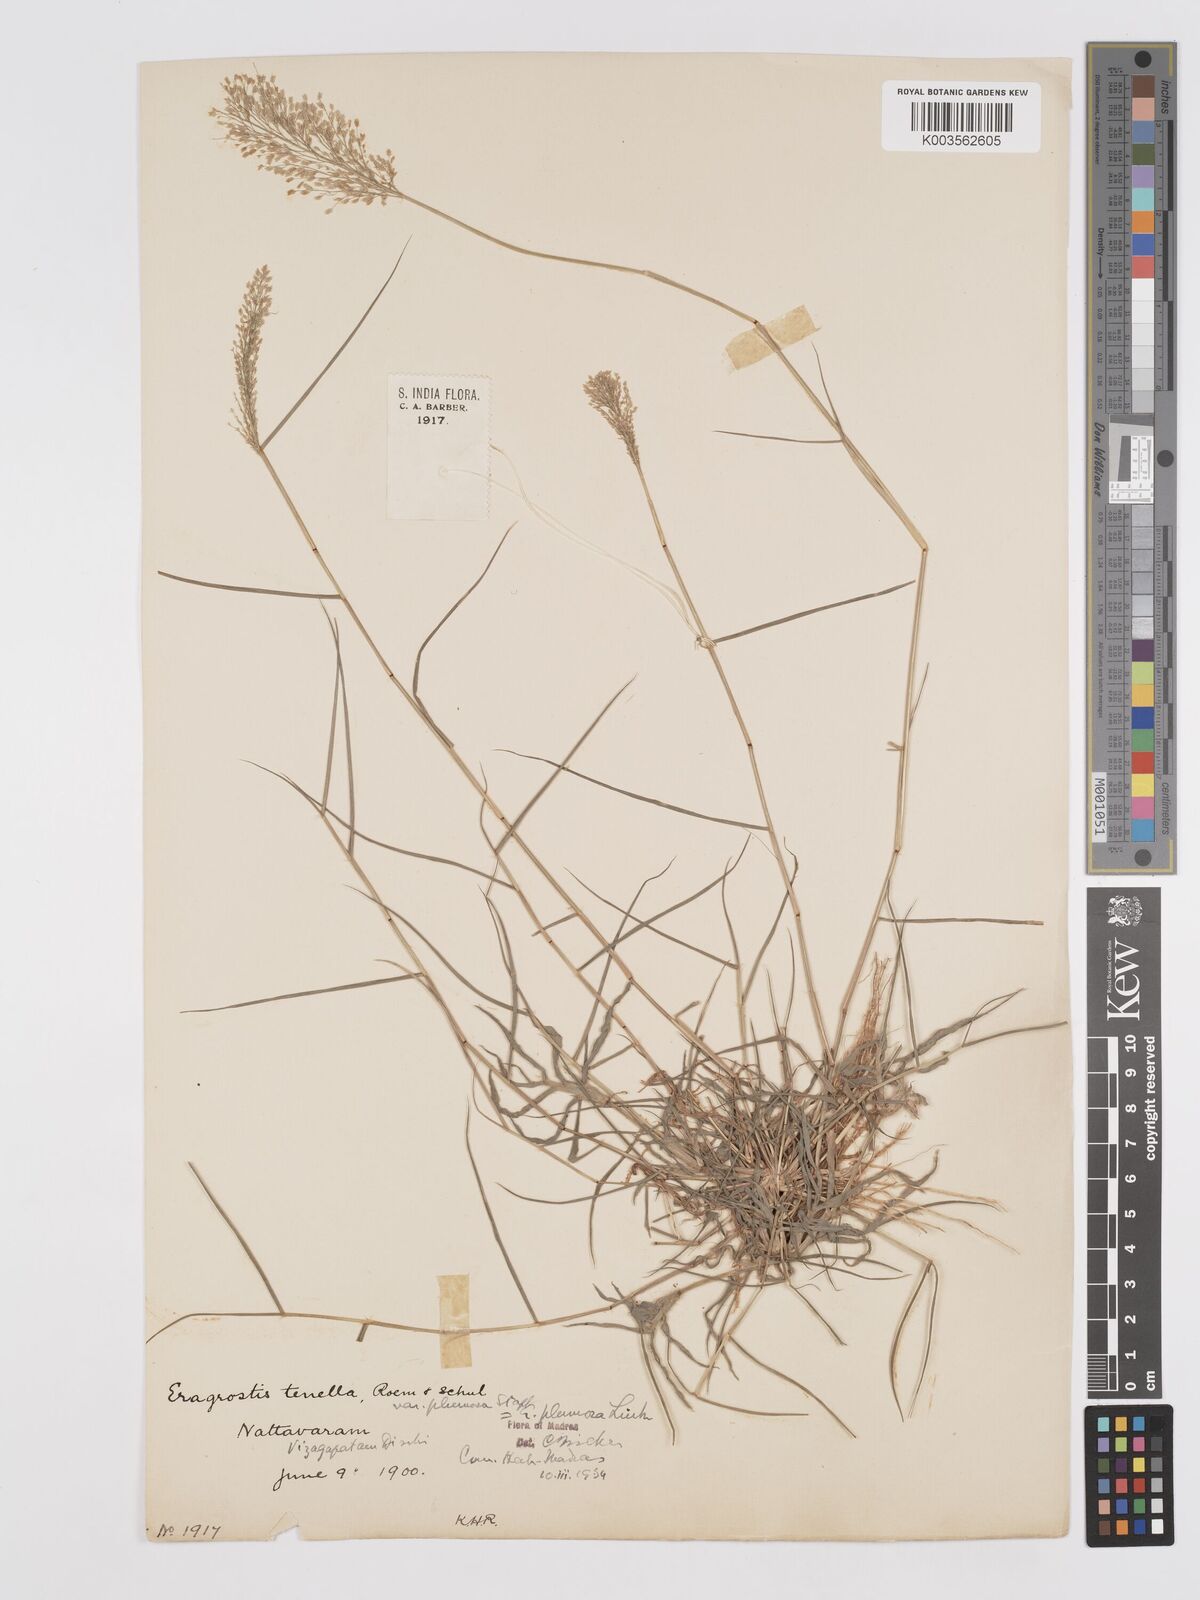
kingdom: Plantae
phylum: Tracheophyta
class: Liliopsida
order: Poales
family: Poaceae
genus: Eragrostis
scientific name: Eragrostis tenella
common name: Japanese lovegrass
